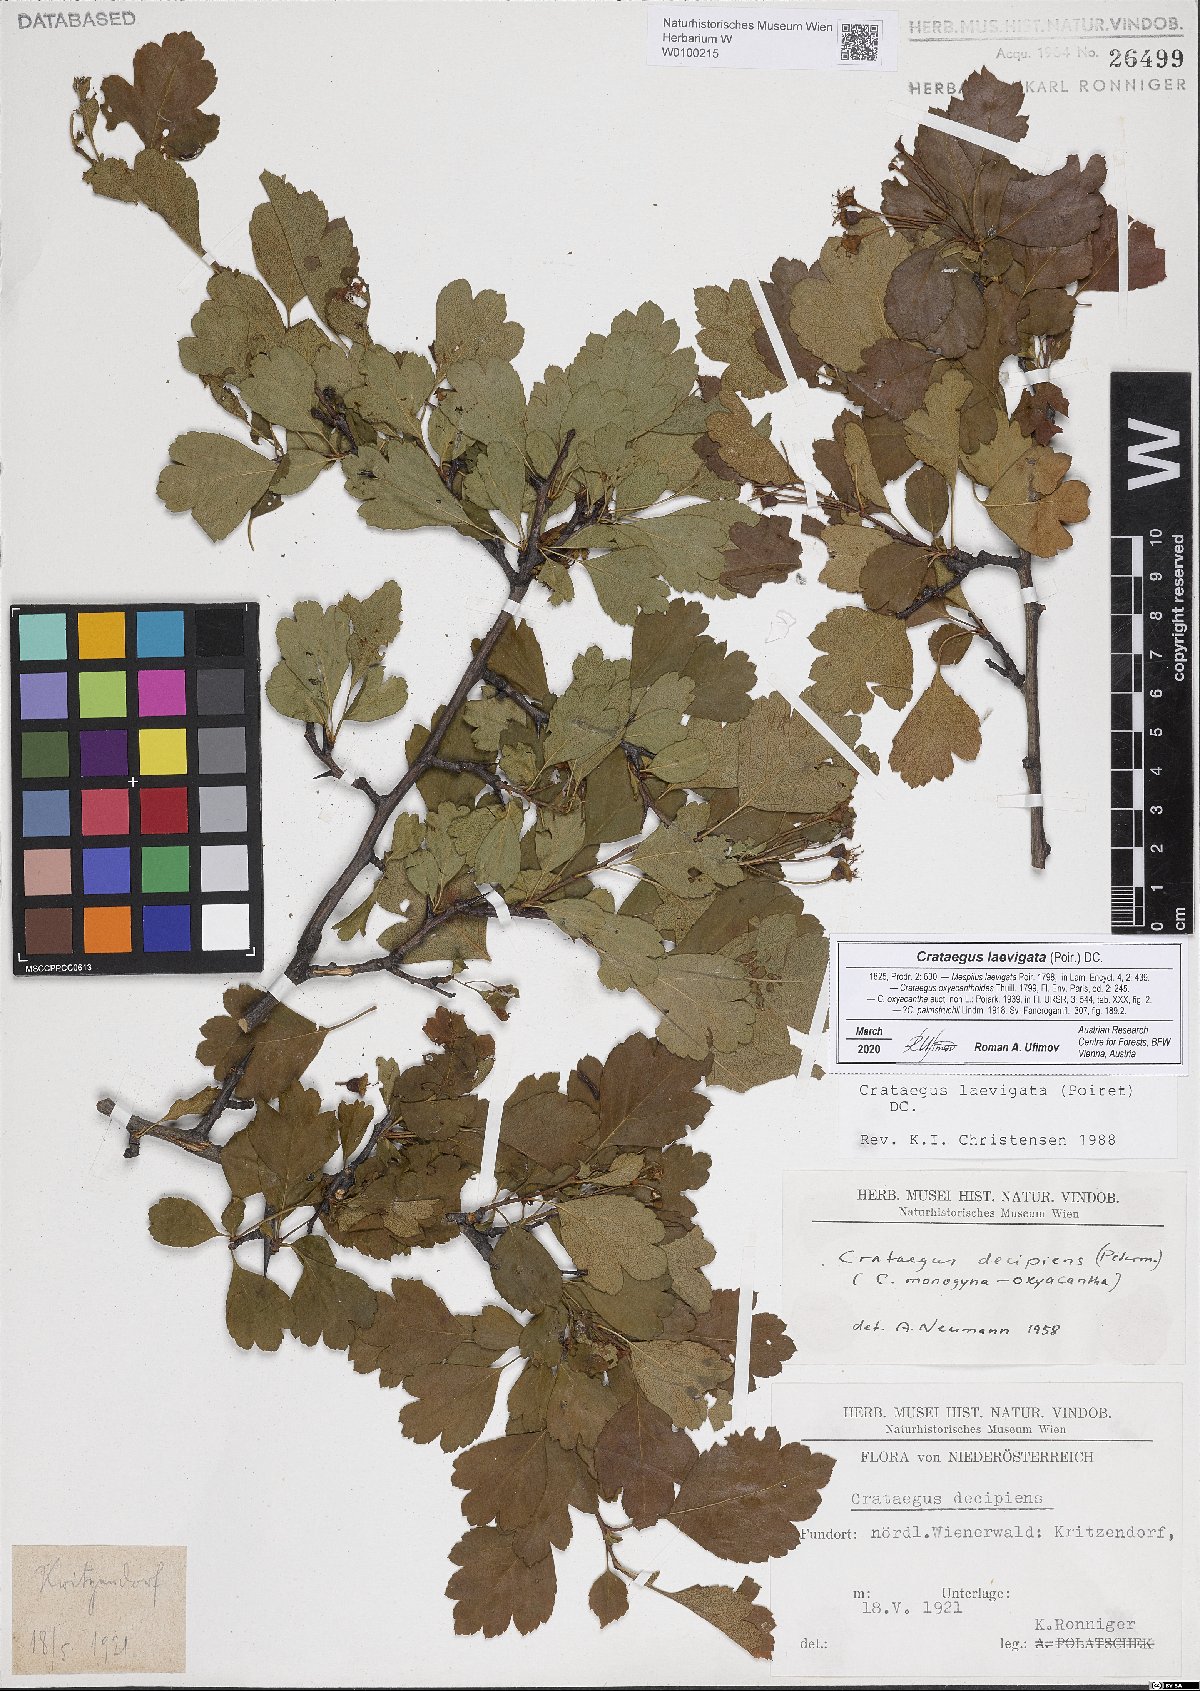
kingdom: Plantae
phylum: Tracheophyta
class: Magnoliopsida
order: Rosales
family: Rosaceae
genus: Crataegus
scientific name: Crataegus laevigata
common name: Midland hawthorn
